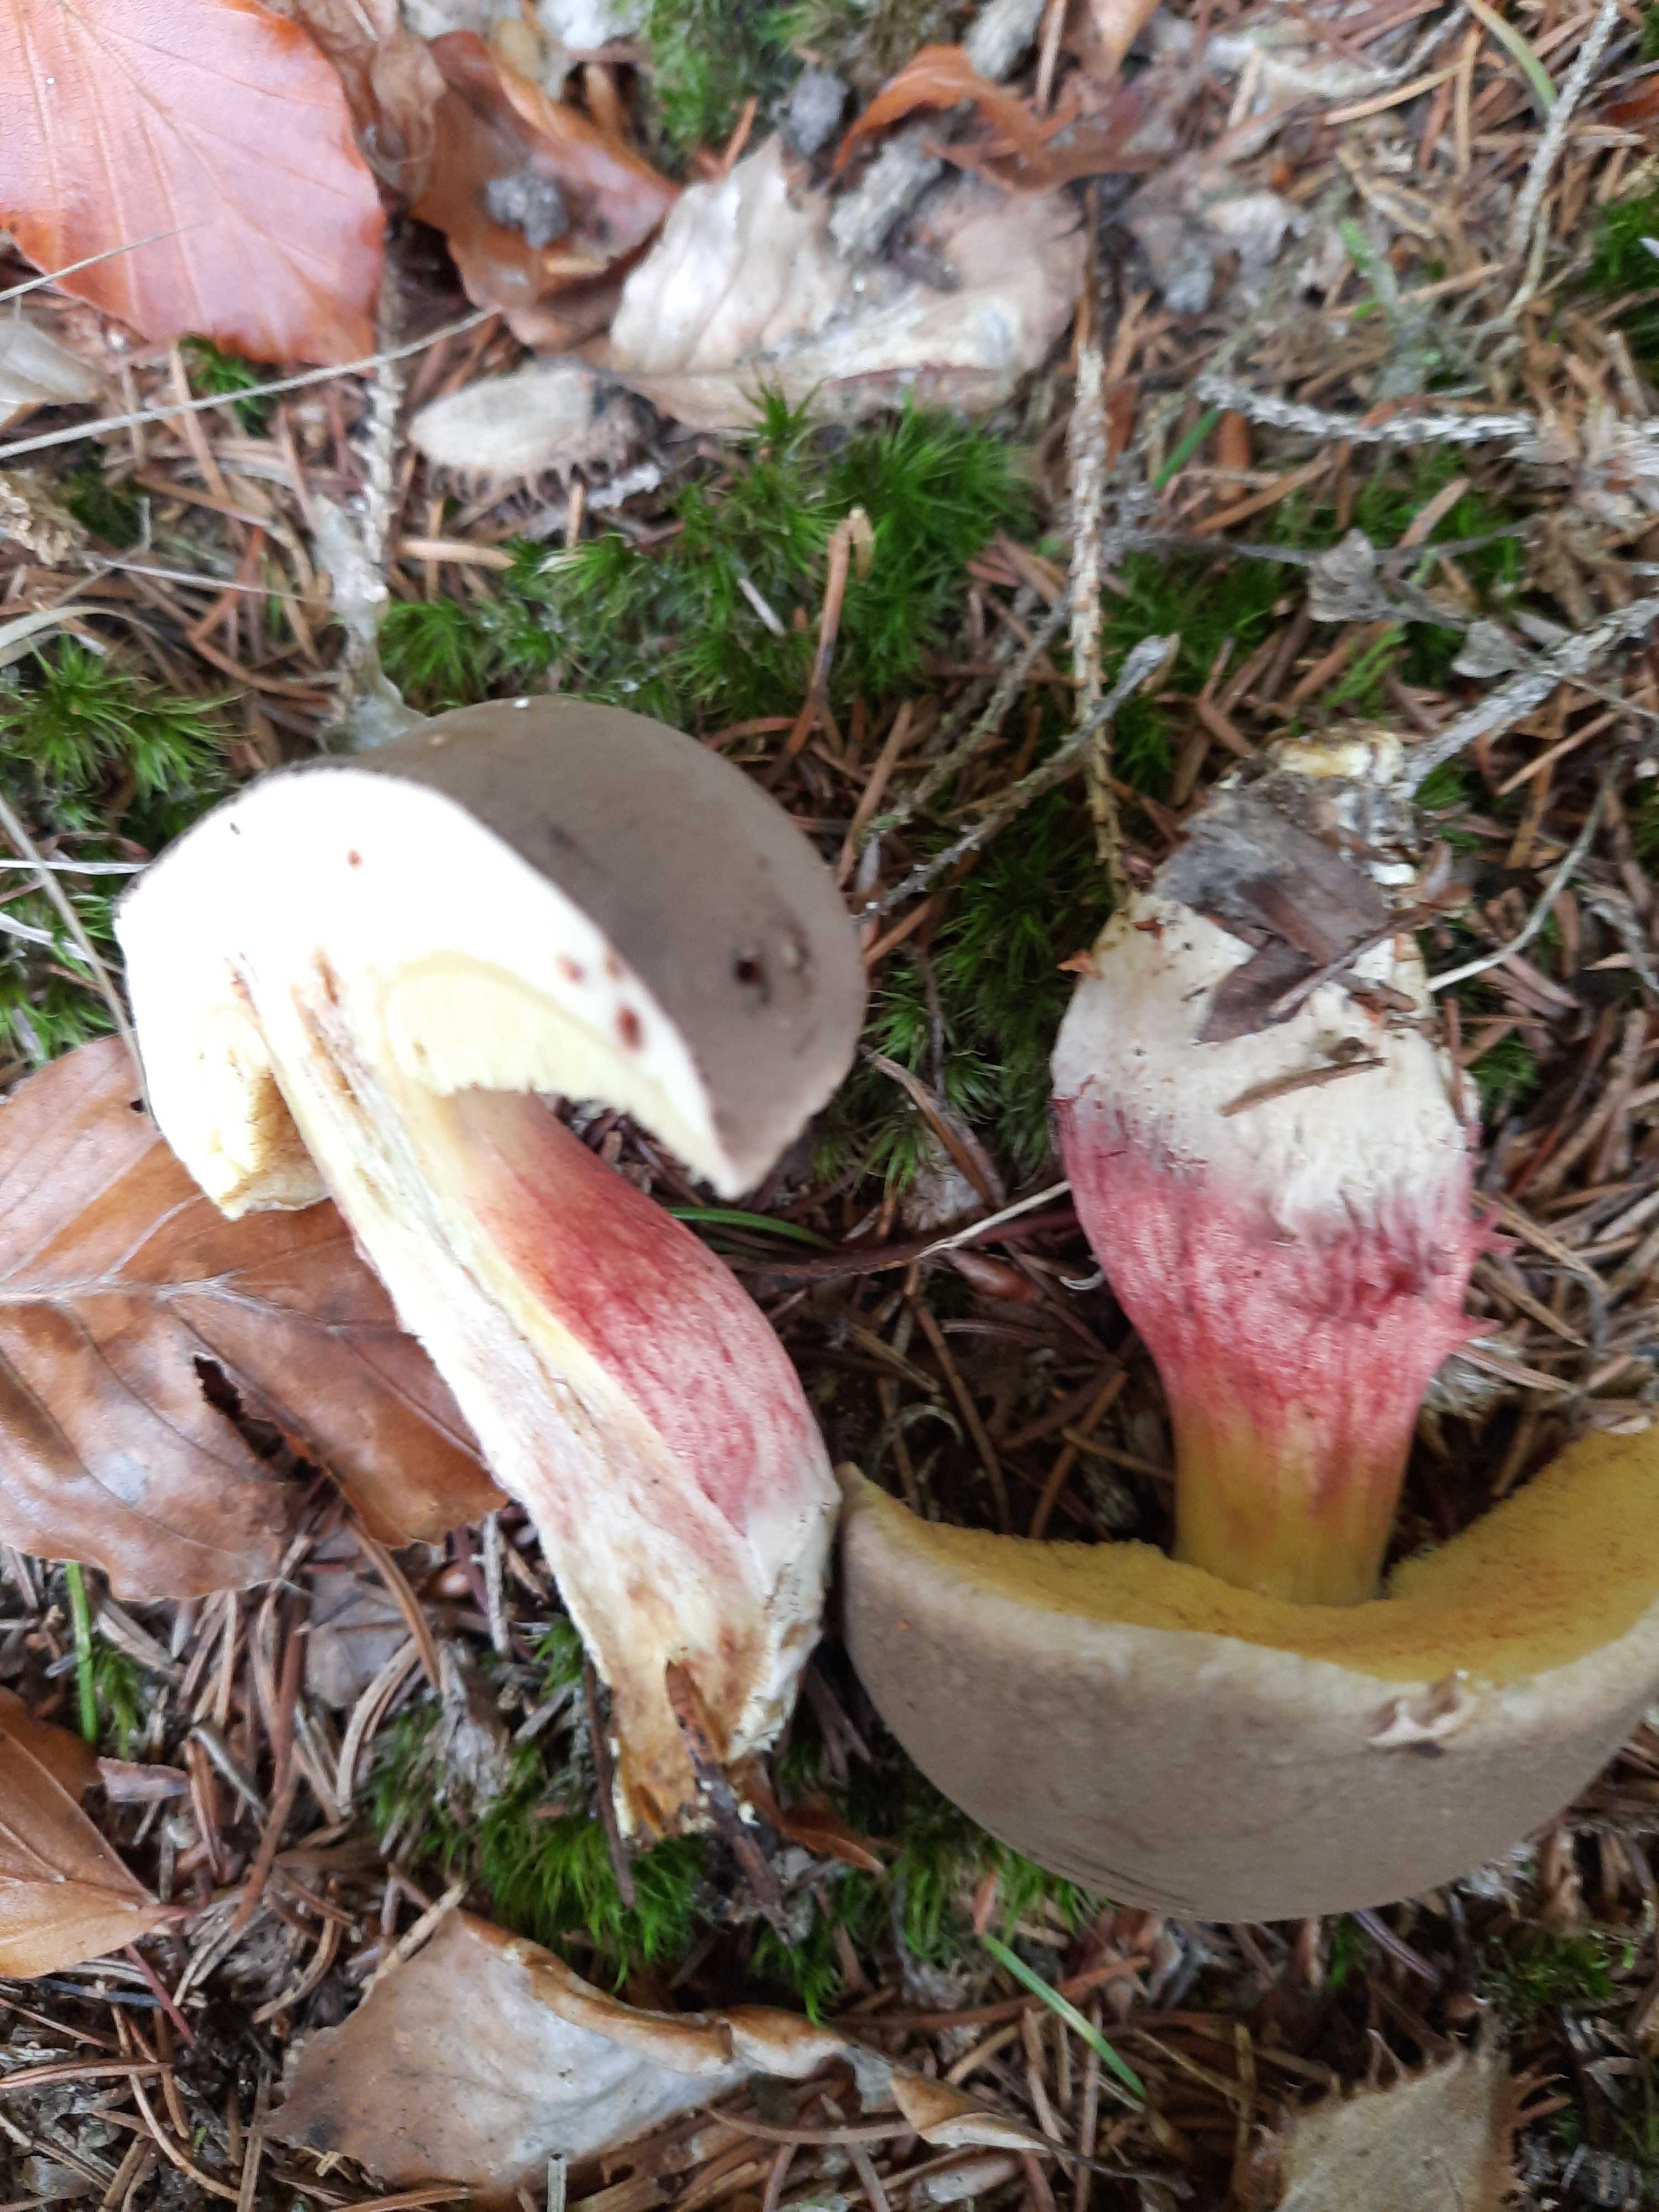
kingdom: Fungi
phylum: Basidiomycota
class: Agaricomycetes
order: Boletales
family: Boletaceae
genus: Xerocomellus
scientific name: Xerocomellus chrysenteron
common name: rødsprukken rørhat
